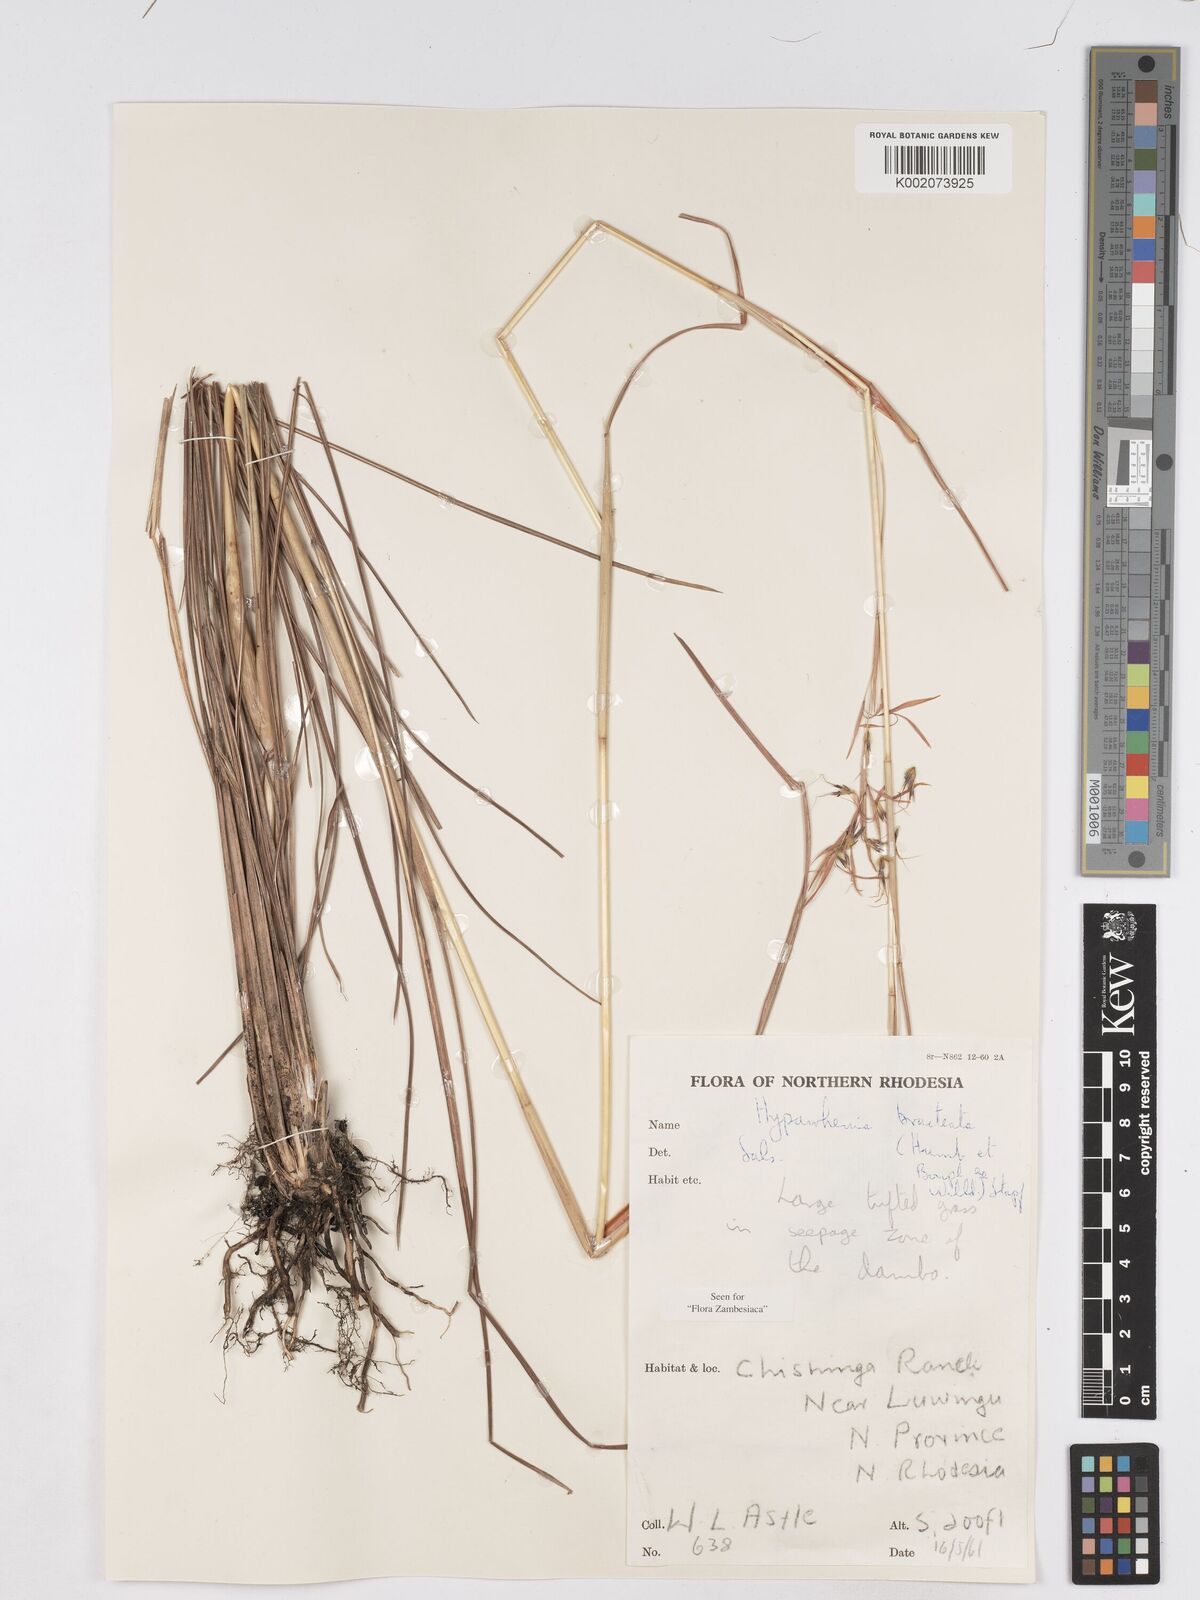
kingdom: Plantae
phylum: Tracheophyta
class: Liliopsida
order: Poales
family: Poaceae
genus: Hyparrhenia
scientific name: Hyparrhenia bracteata
